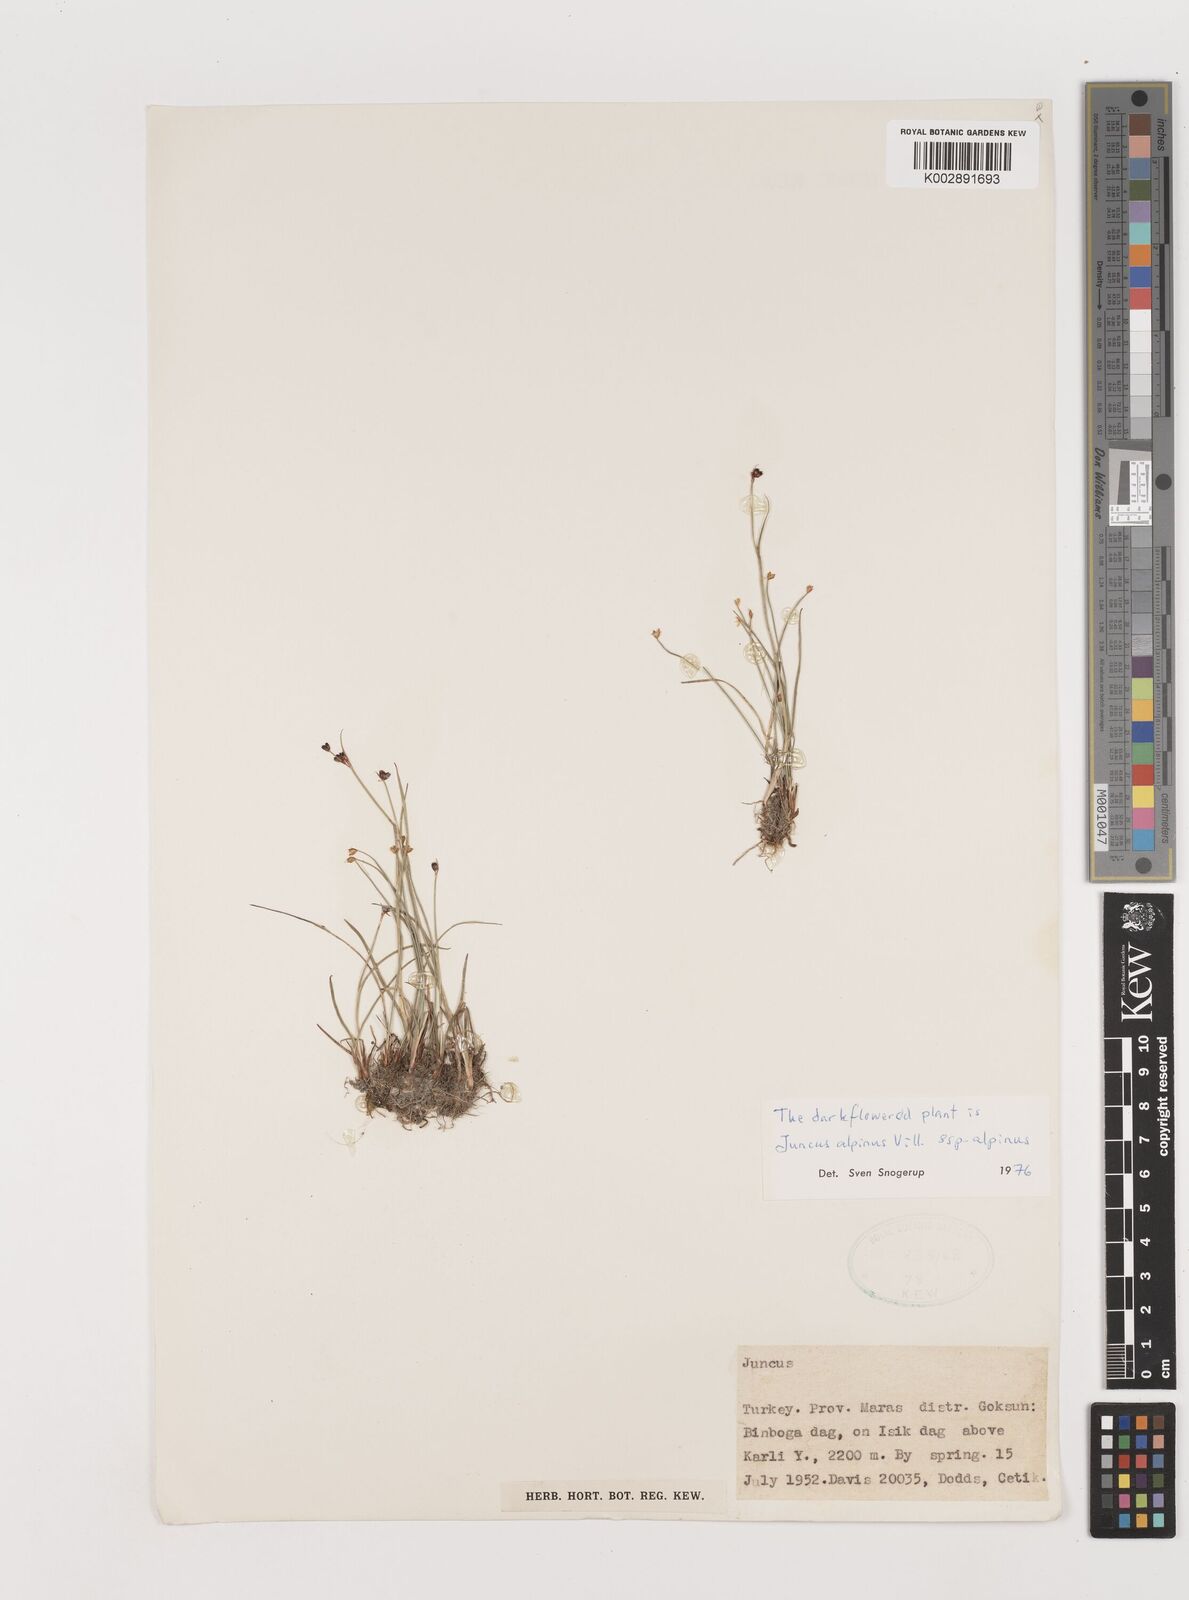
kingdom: Plantae
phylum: Tracheophyta
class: Liliopsida
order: Poales
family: Juncaceae
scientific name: Juncaceae
